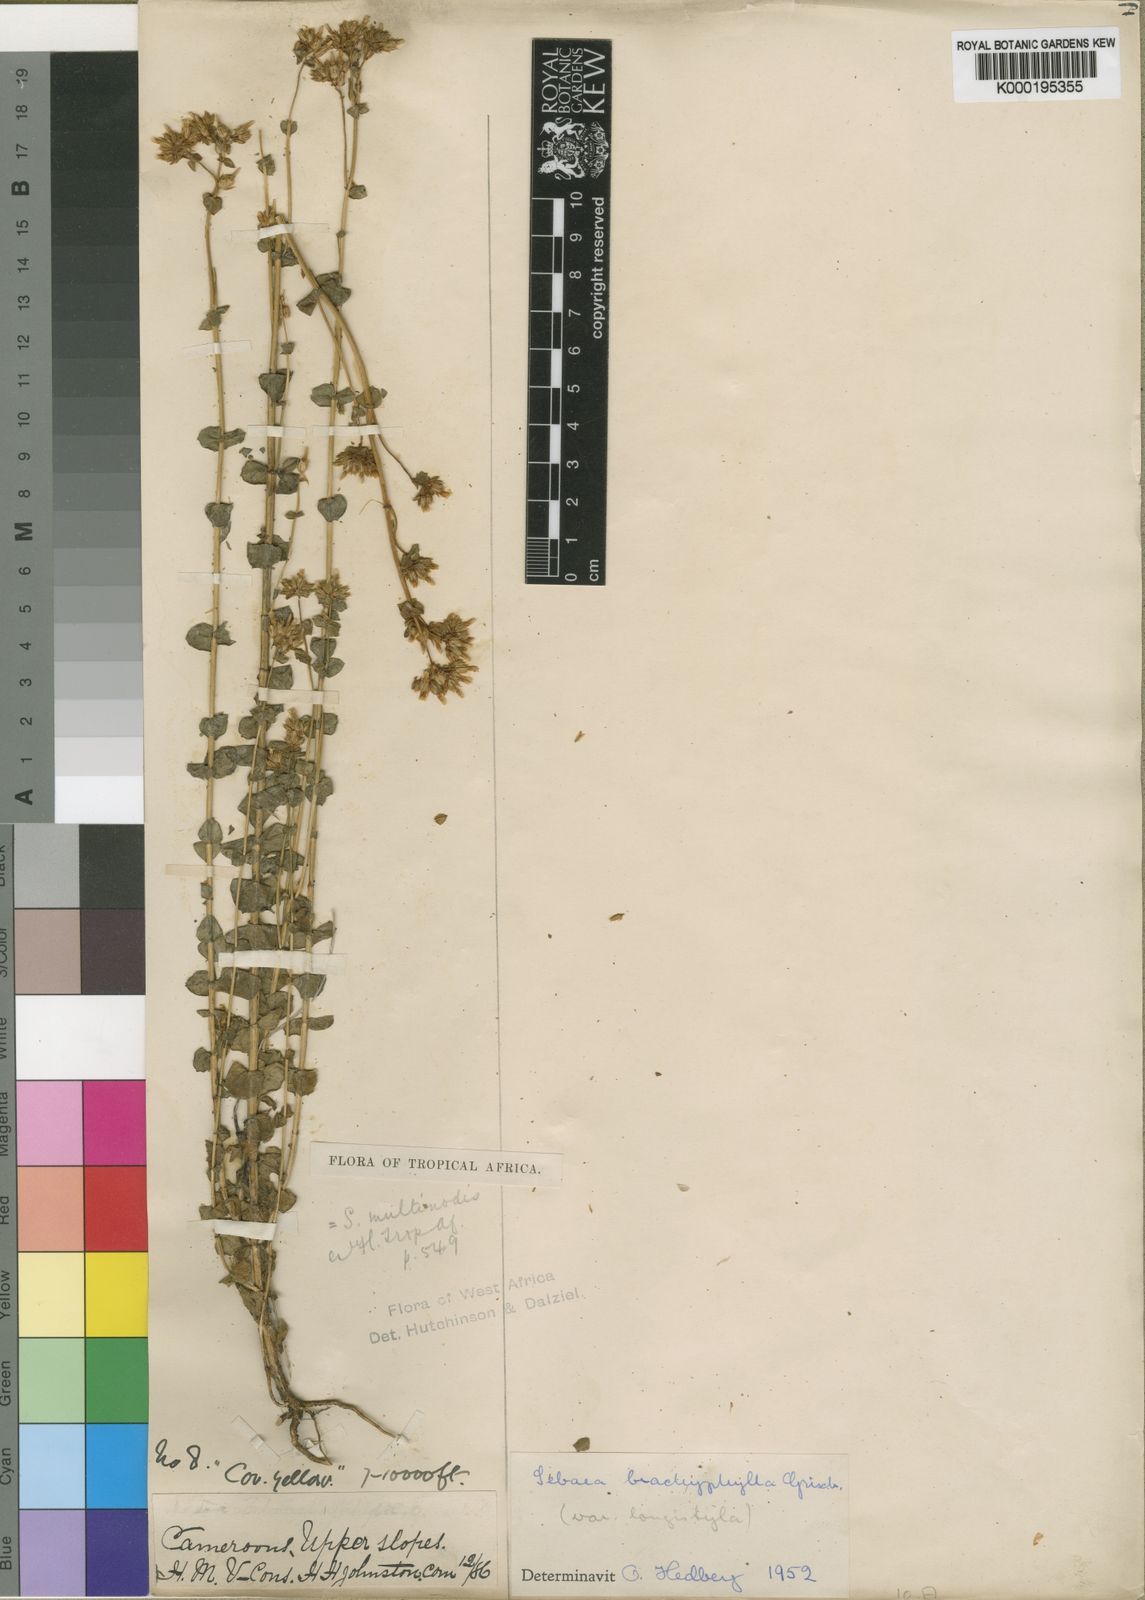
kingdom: Plantae
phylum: Tracheophyta
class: Magnoliopsida
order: Gentianales
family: Gentianaceae
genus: Sebaea
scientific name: Sebaea brachyphylla
